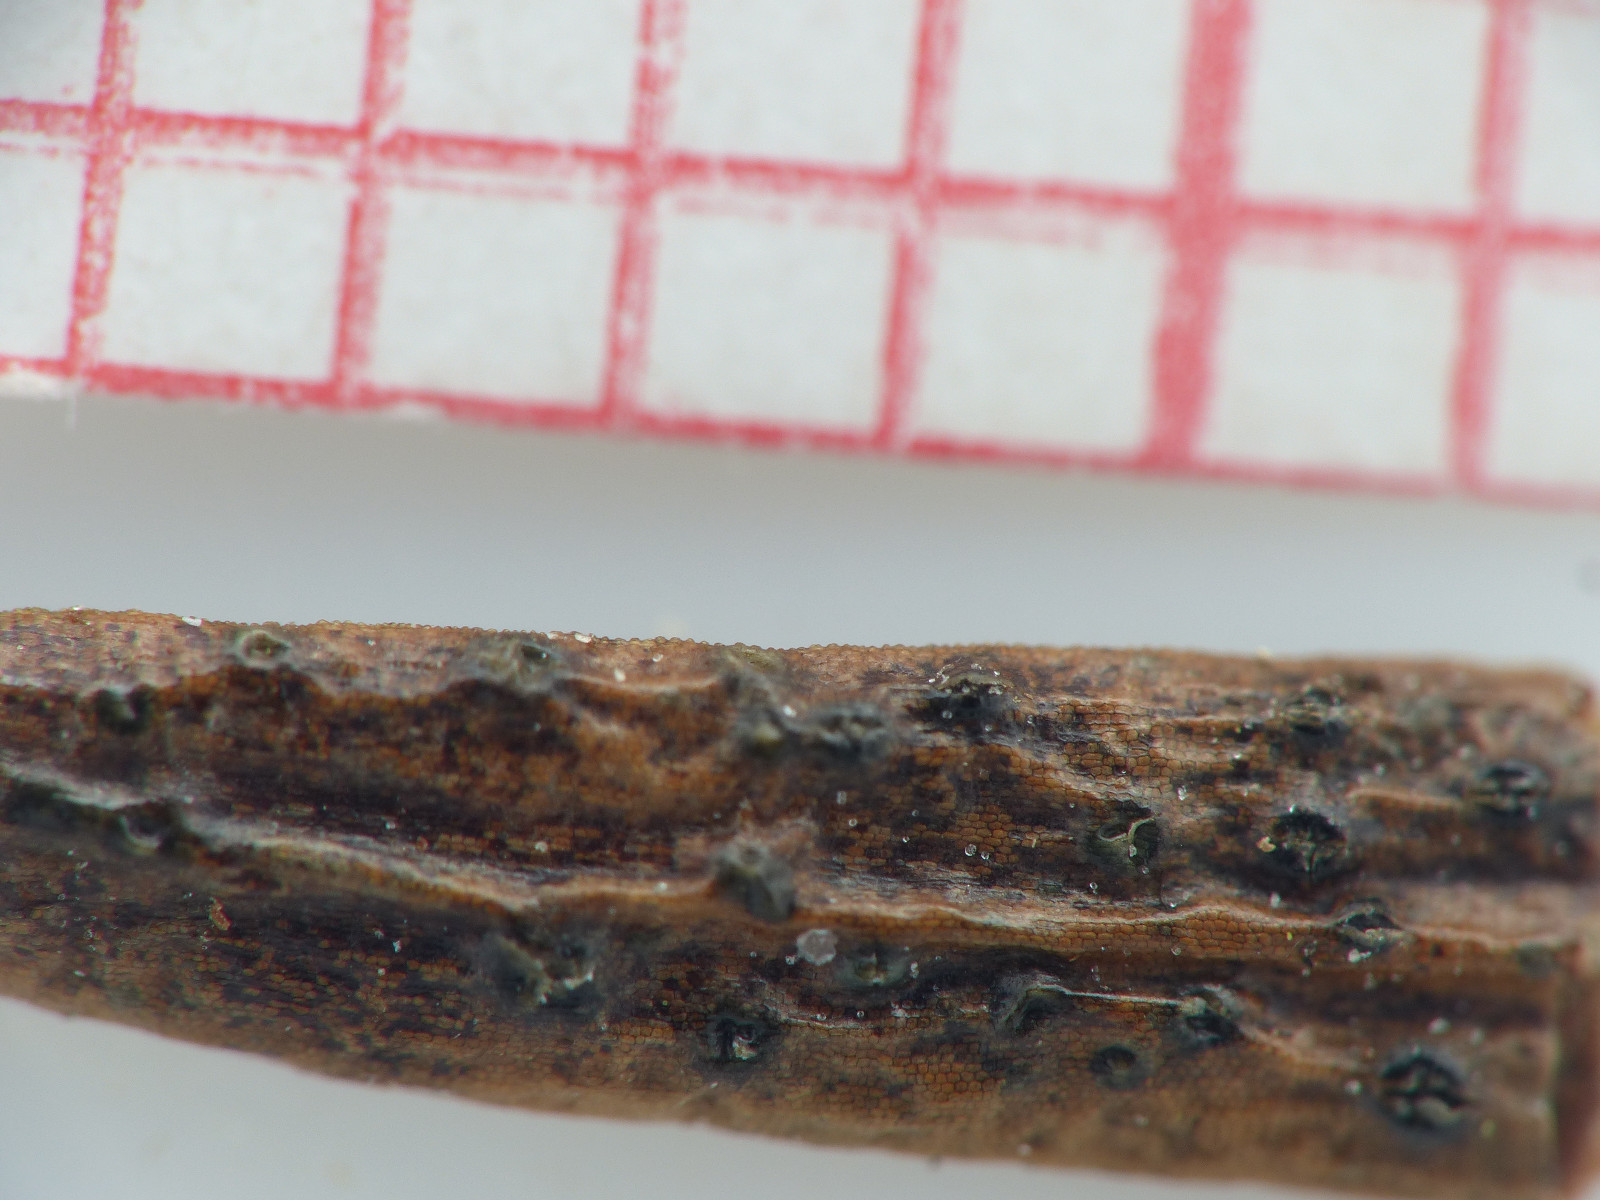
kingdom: Fungi
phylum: Ascomycota
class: Dothideomycetes
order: Botryosphaeriales
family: Botryosphaeriaceae
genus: Diplodia
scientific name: Diplodia taxi
